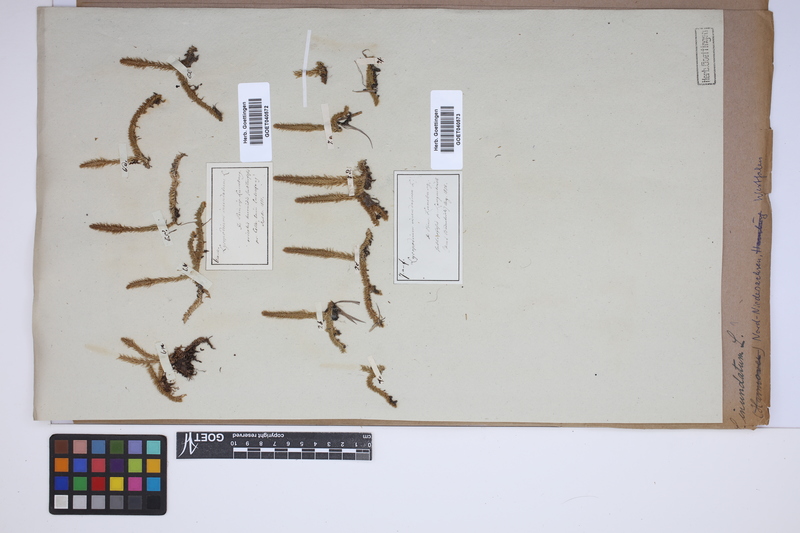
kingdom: Plantae
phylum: Tracheophyta
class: Lycopodiopsida
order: Lycopodiales
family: Lycopodiaceae
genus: Lycopodiella
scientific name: Lycopodiella inundata
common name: Marsh clubmoss
